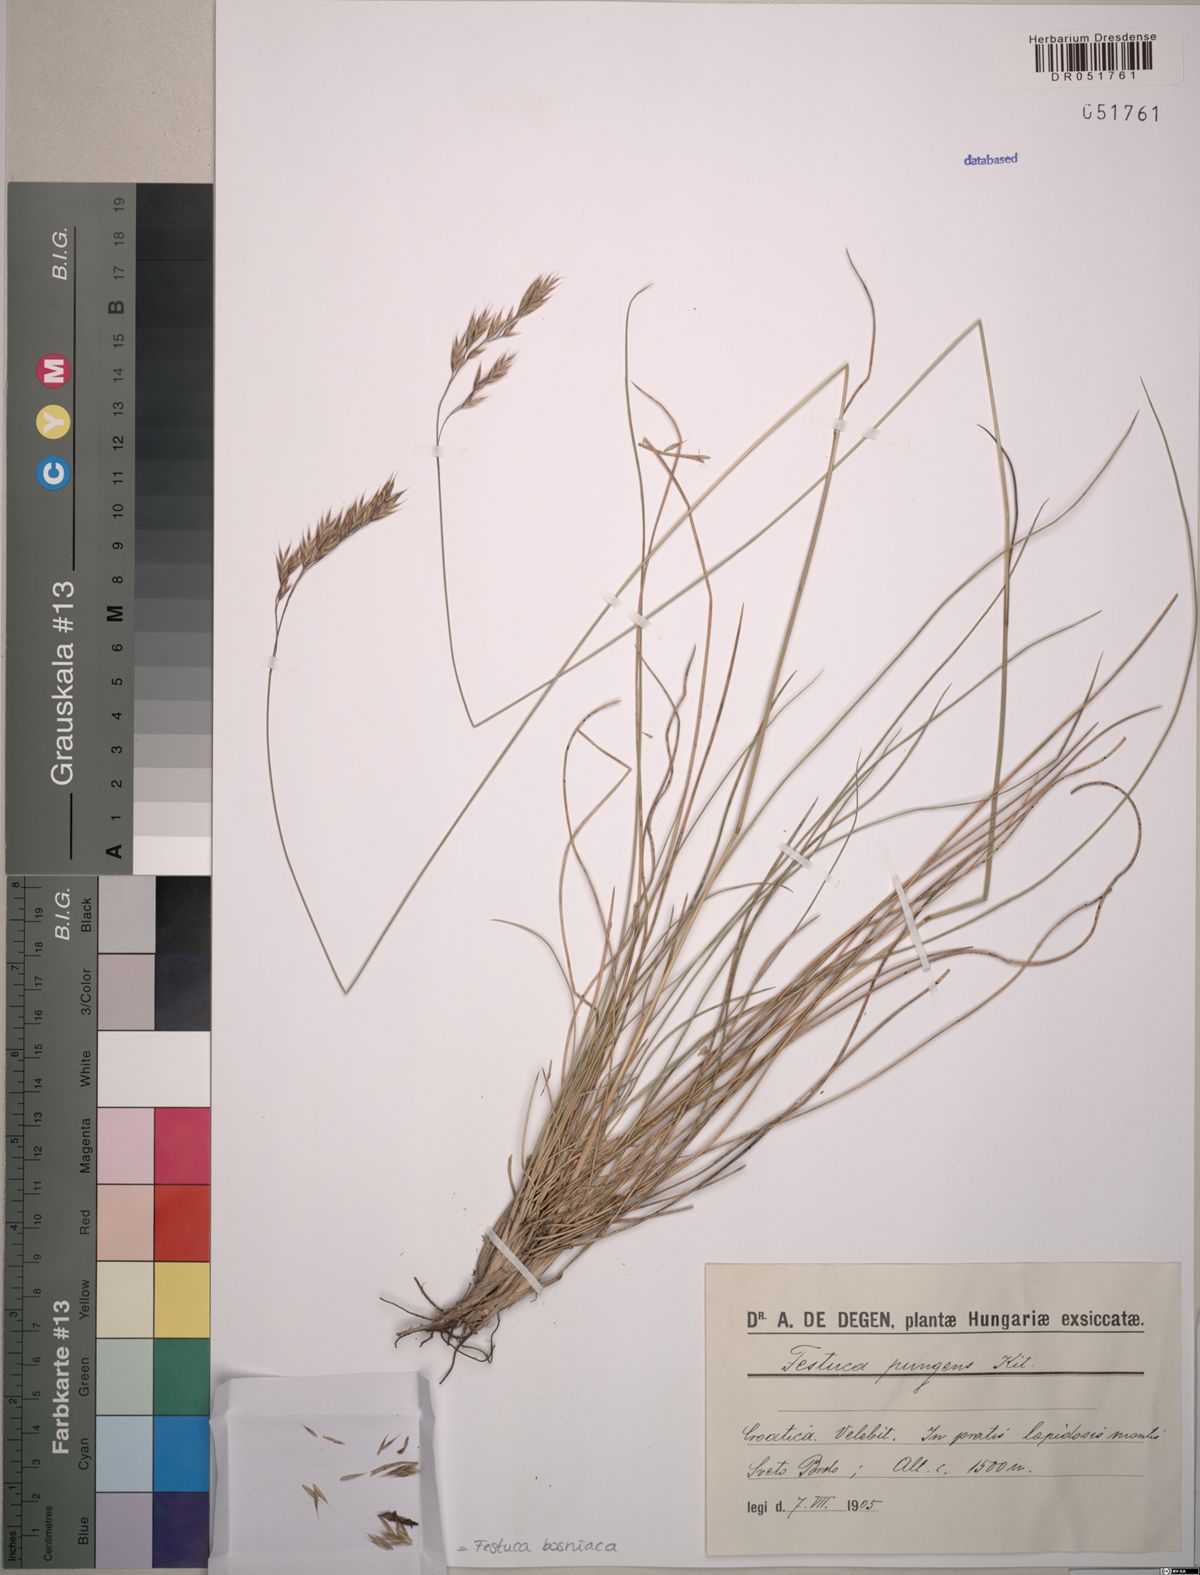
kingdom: Plantae
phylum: Tracheophyta
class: Liliopsida
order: Poales
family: Poaceae
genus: Festuca
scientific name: Festuca bosniaca
